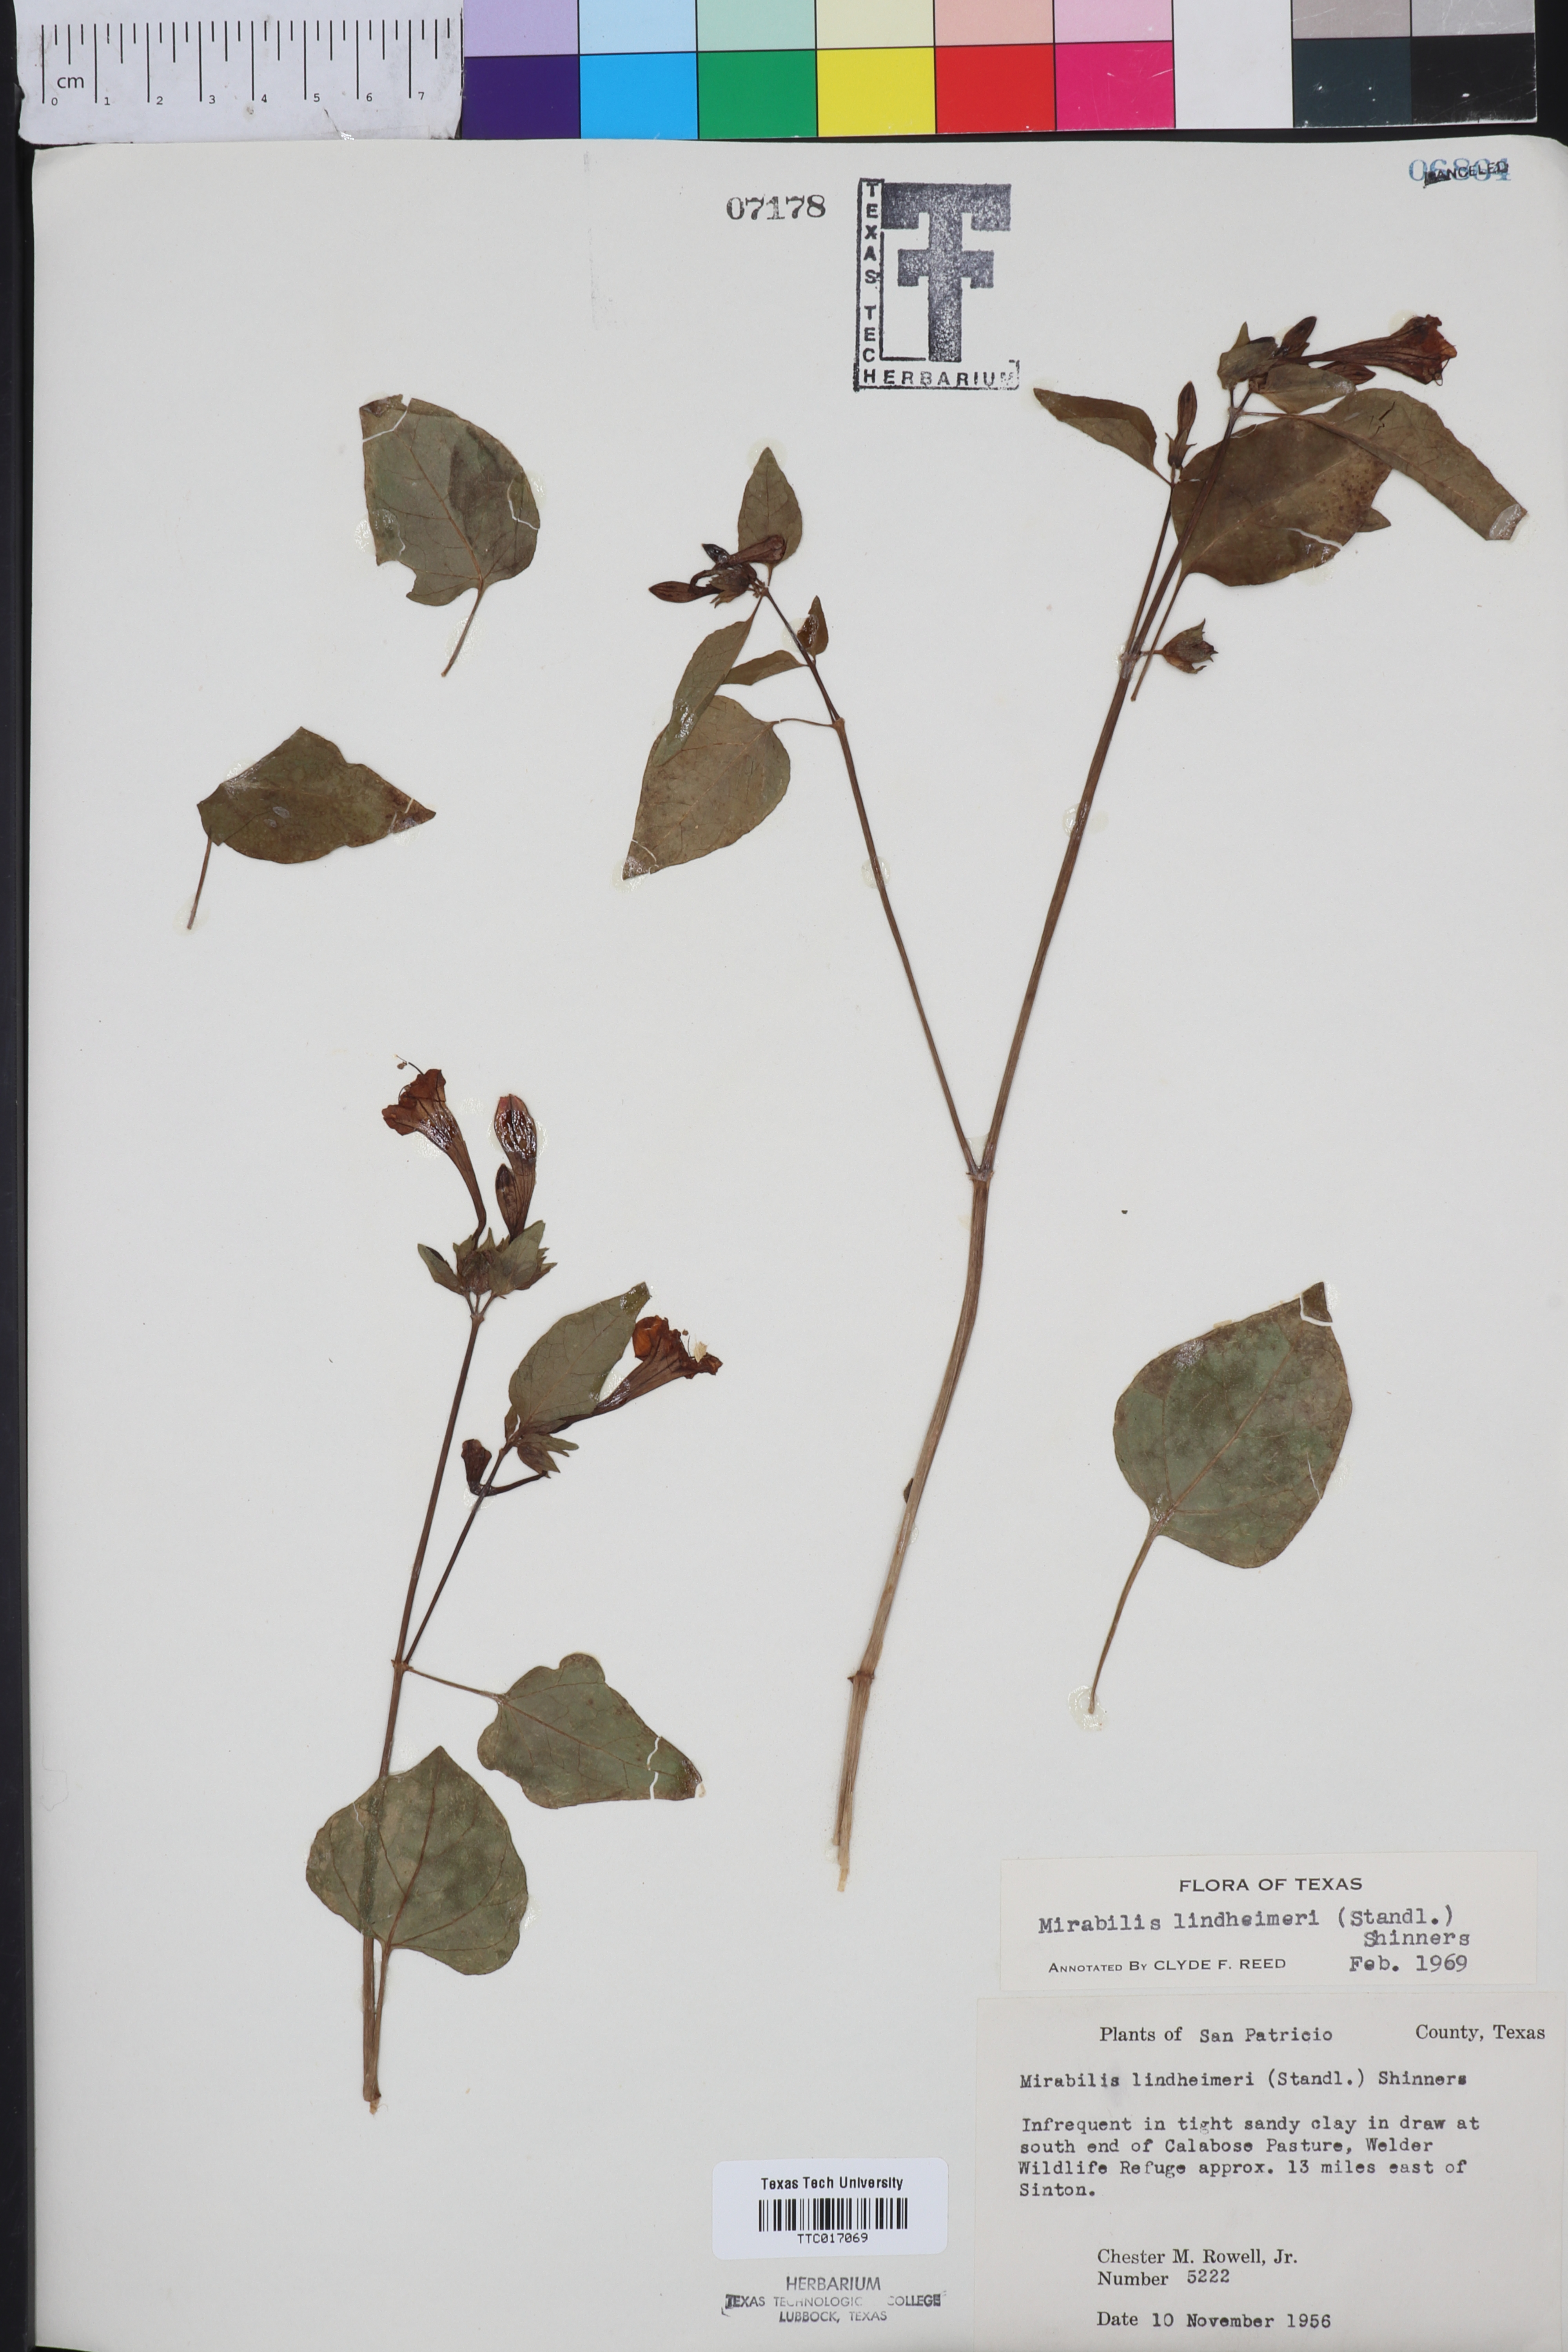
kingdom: Plantae
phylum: Tracheophyta
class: Magnoliopsida
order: Caryophyllales
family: Nyctaginaceae
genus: Mirabilis
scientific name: Mirabilis jalapa
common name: Marvel-of-peru
